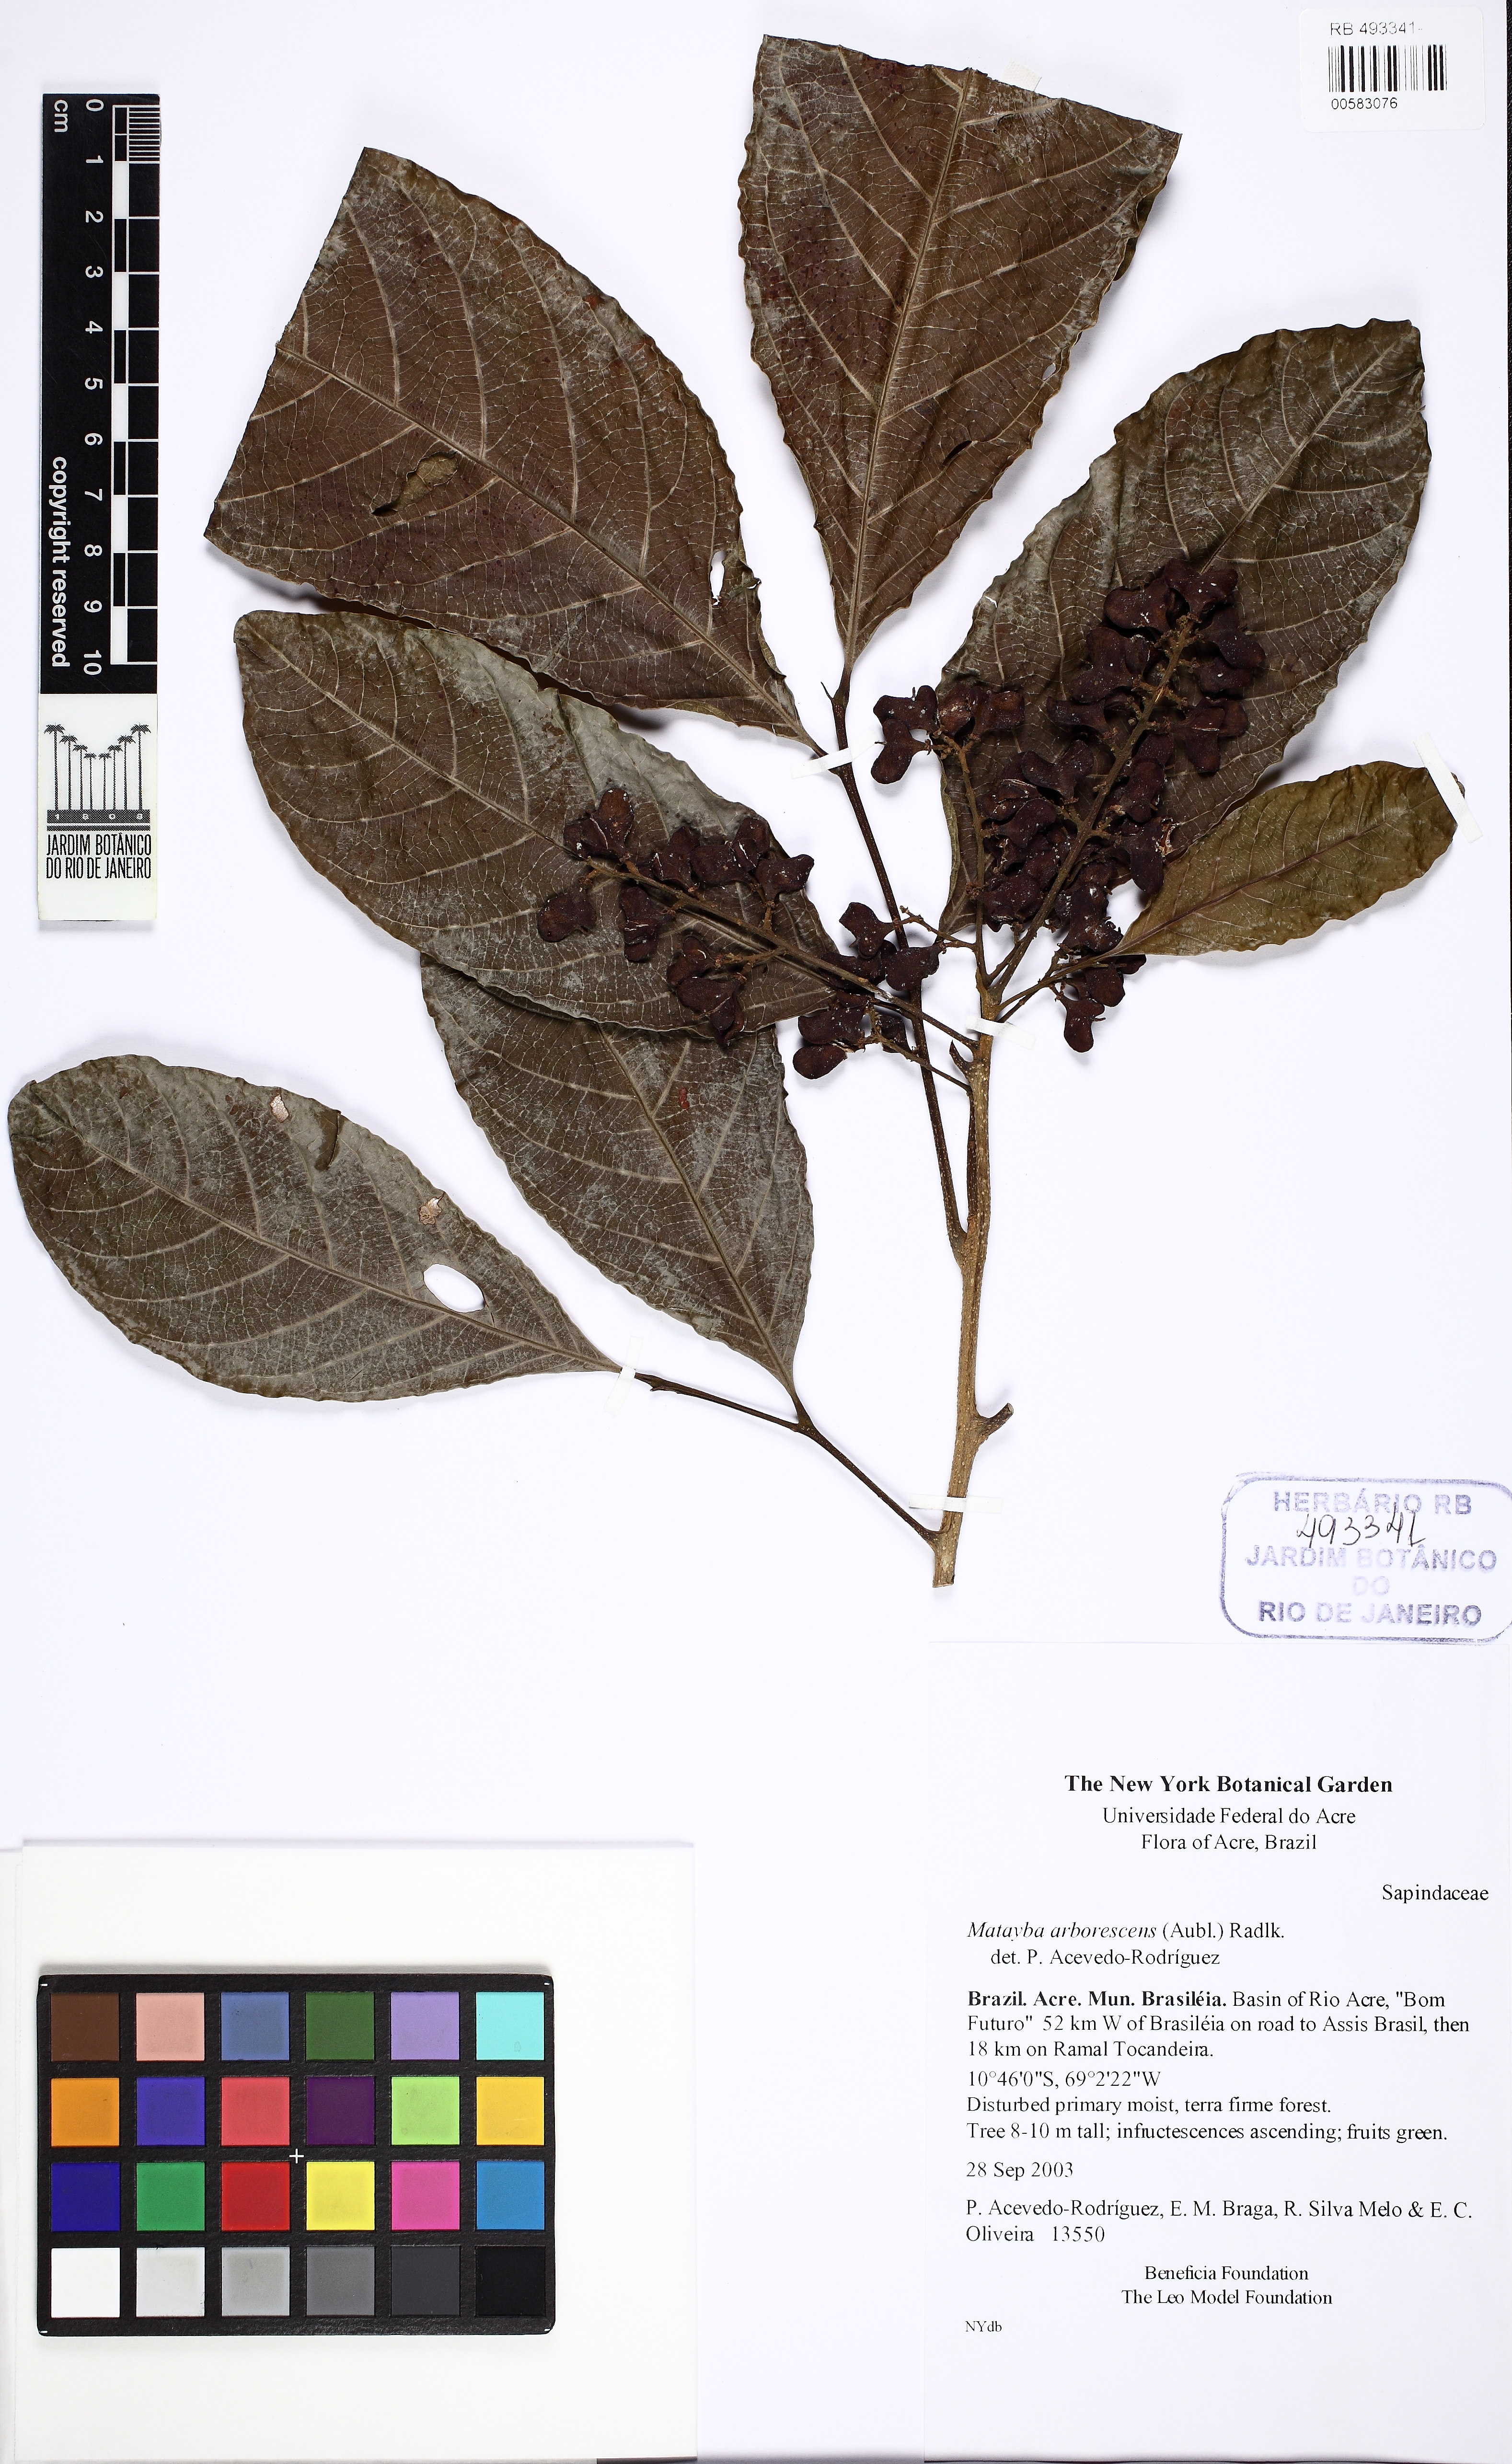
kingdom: Plantae
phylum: Tracheophyta
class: Magnoliopsida
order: Sapindales
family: Sapindaceae
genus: Matayba
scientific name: Matayba arborescens
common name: Arborescent matayba
